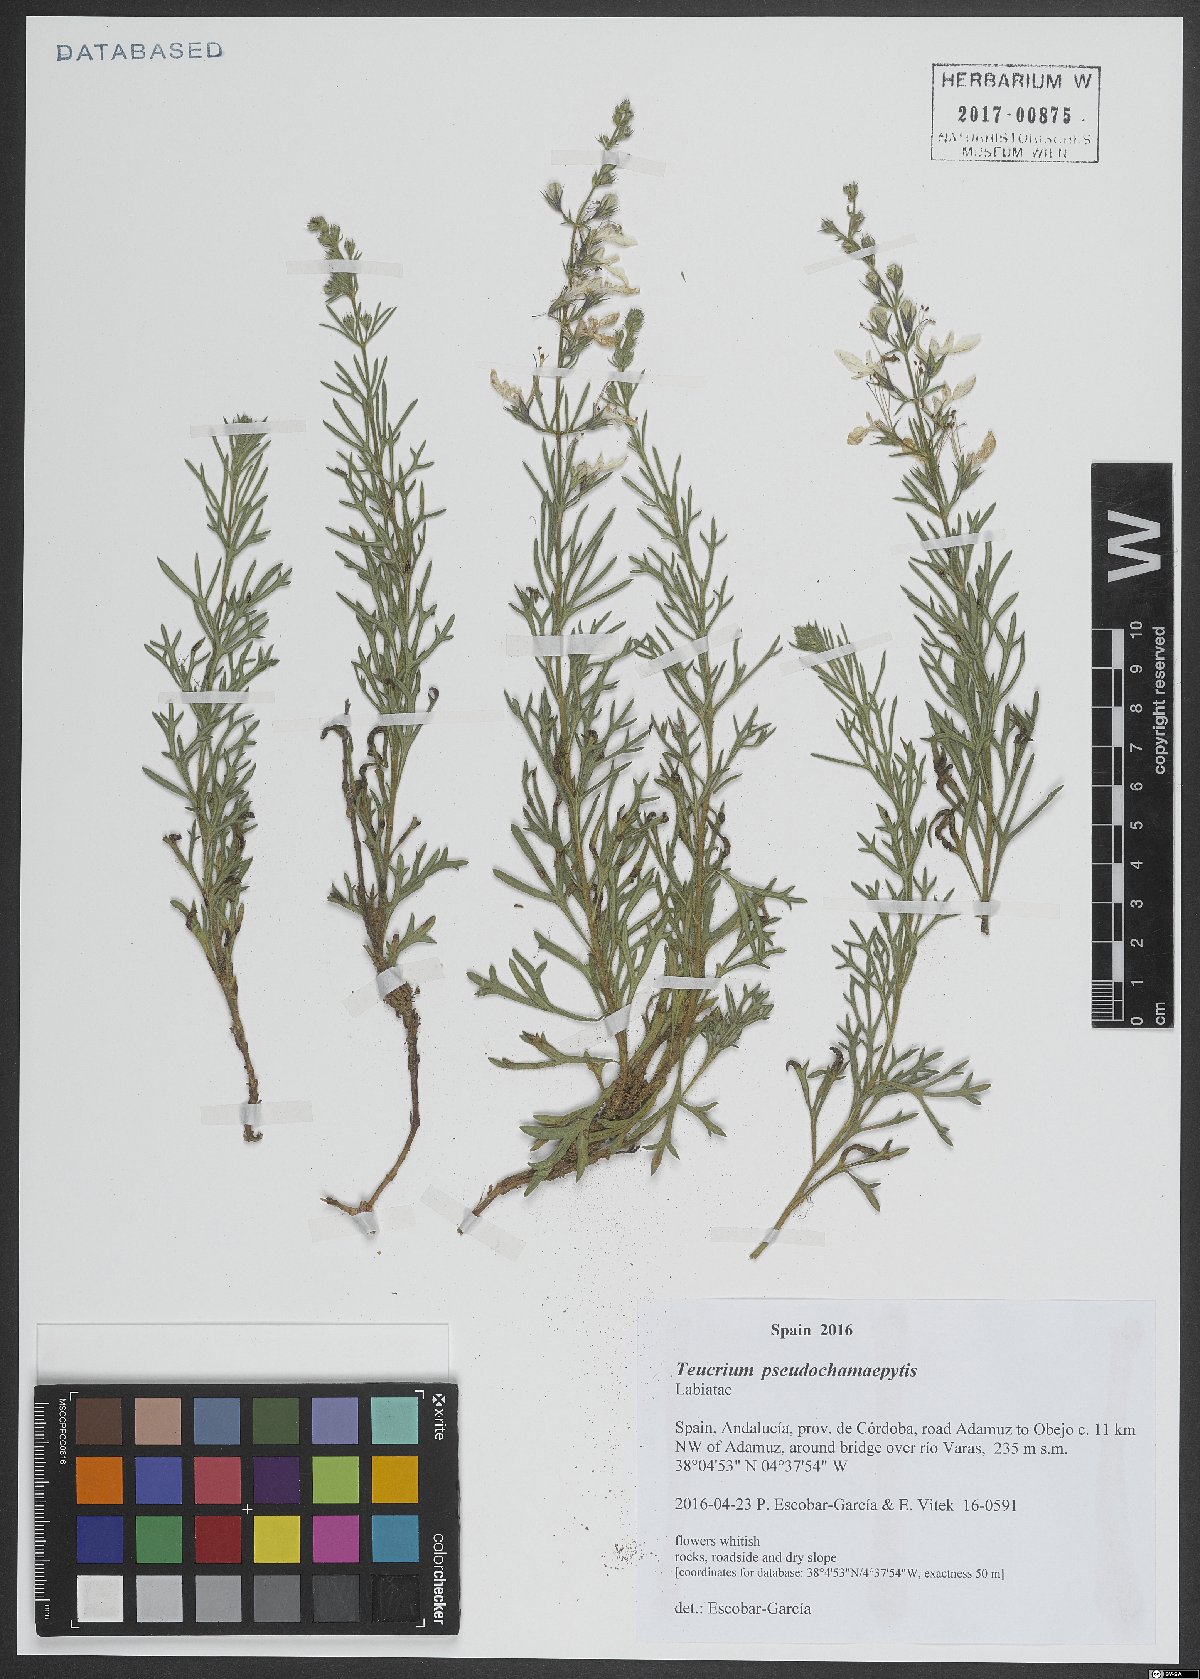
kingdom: Plantae
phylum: Tracheophyta
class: Magnoliopsida
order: Lamiales
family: Lamiaceae
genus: Teucrium
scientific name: Teucrium pseudochamaepitys
